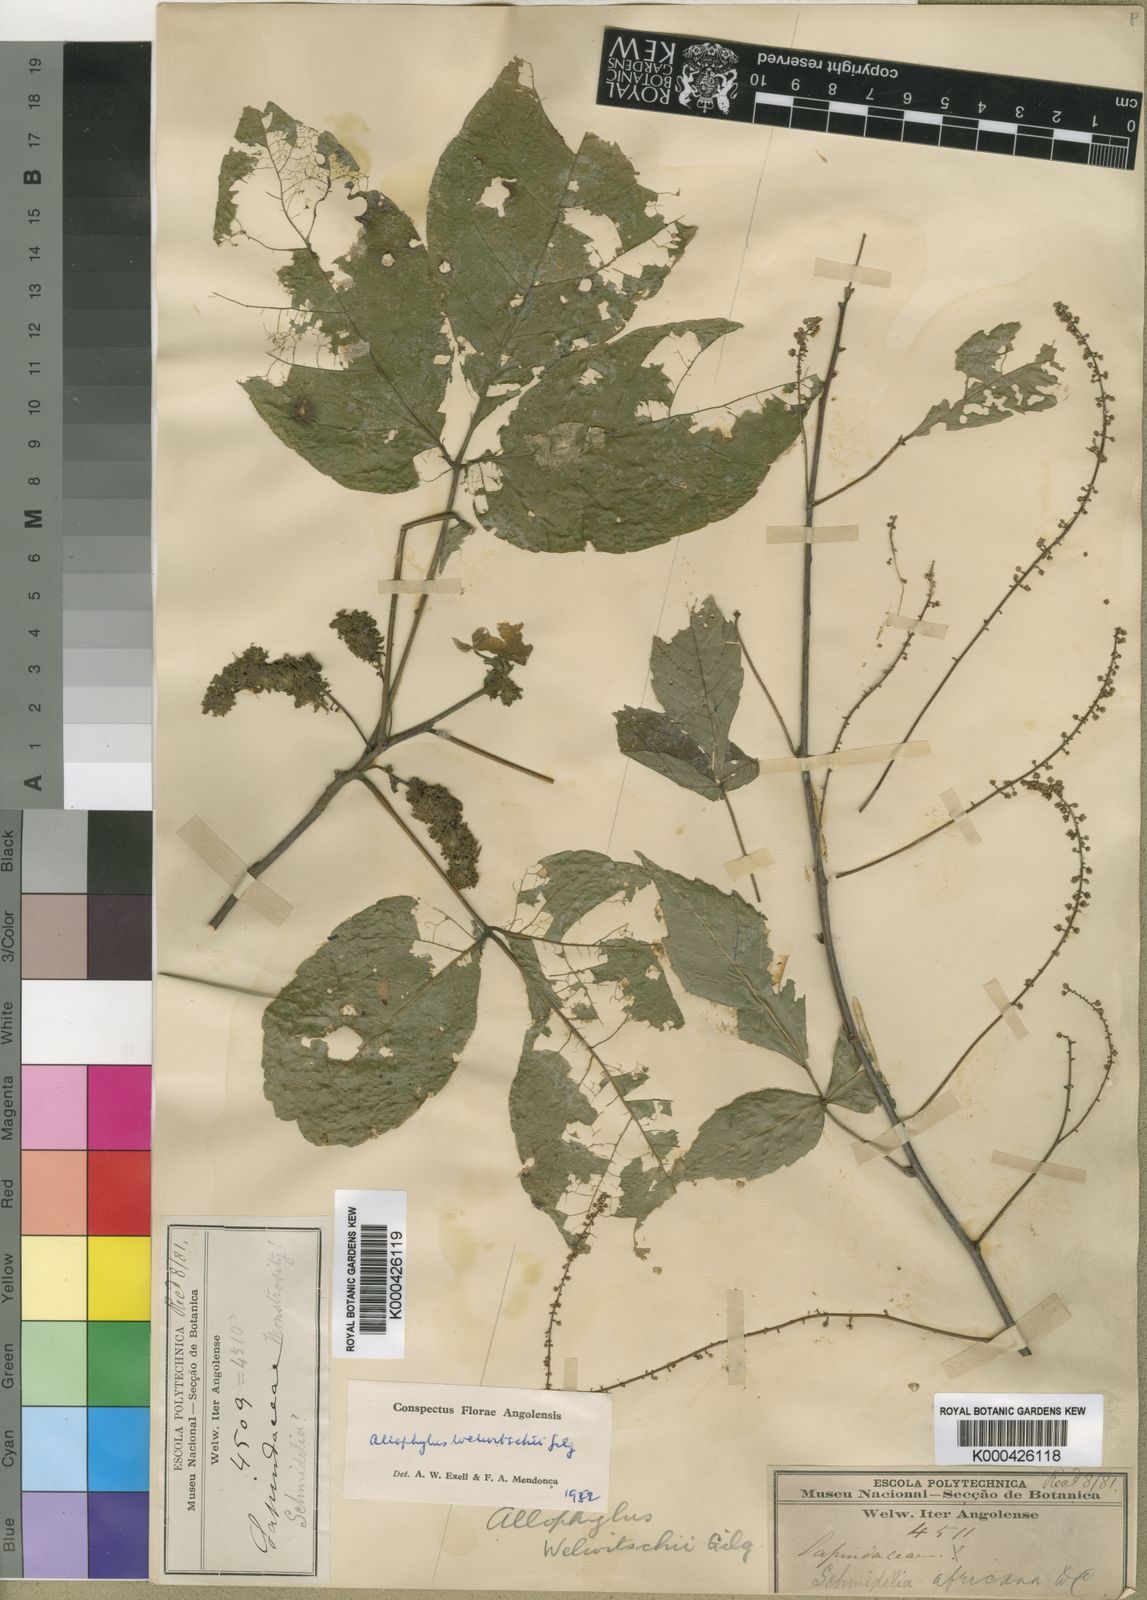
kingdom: Plantae
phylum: Tracheophyta
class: Magnoliopsida
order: Sapindales
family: Sapindaceae
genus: Allophylus
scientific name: Allophylus welwitschii
